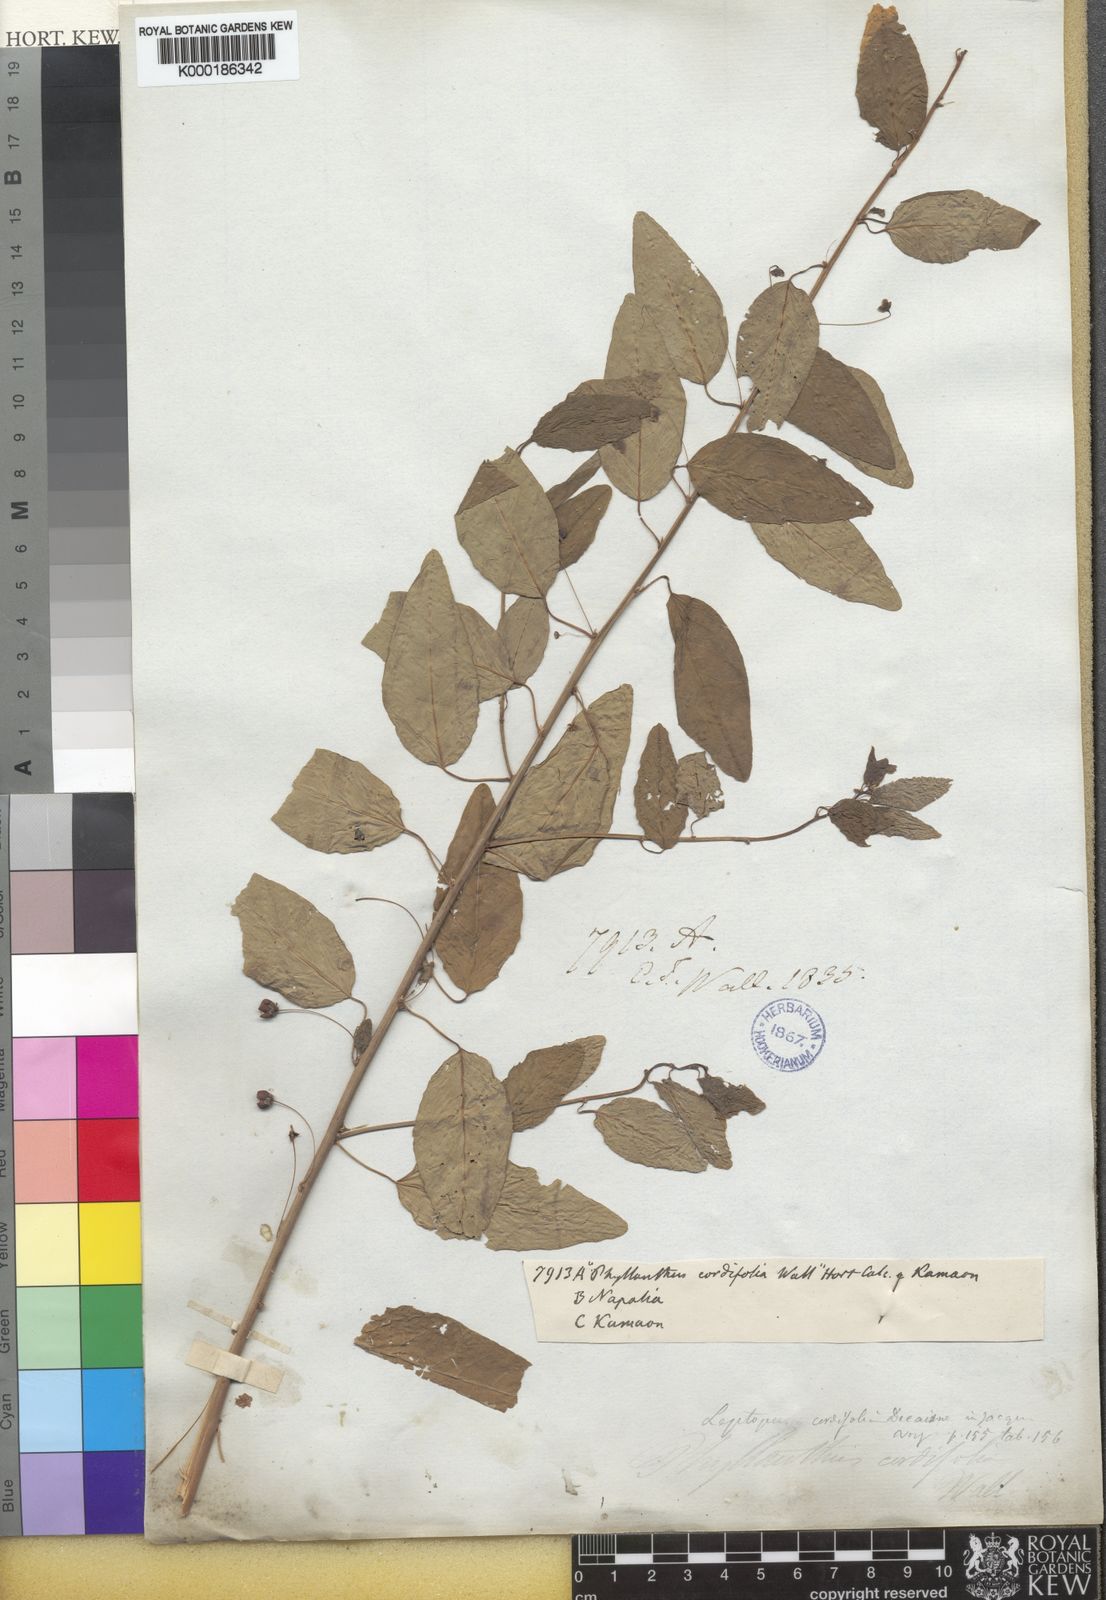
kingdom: Plantae
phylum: Tracheophyta
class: Magnoliopsida
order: Malpighiales
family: Phyllanthaceae
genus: Leptopus
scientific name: Leptopus cordifolius
